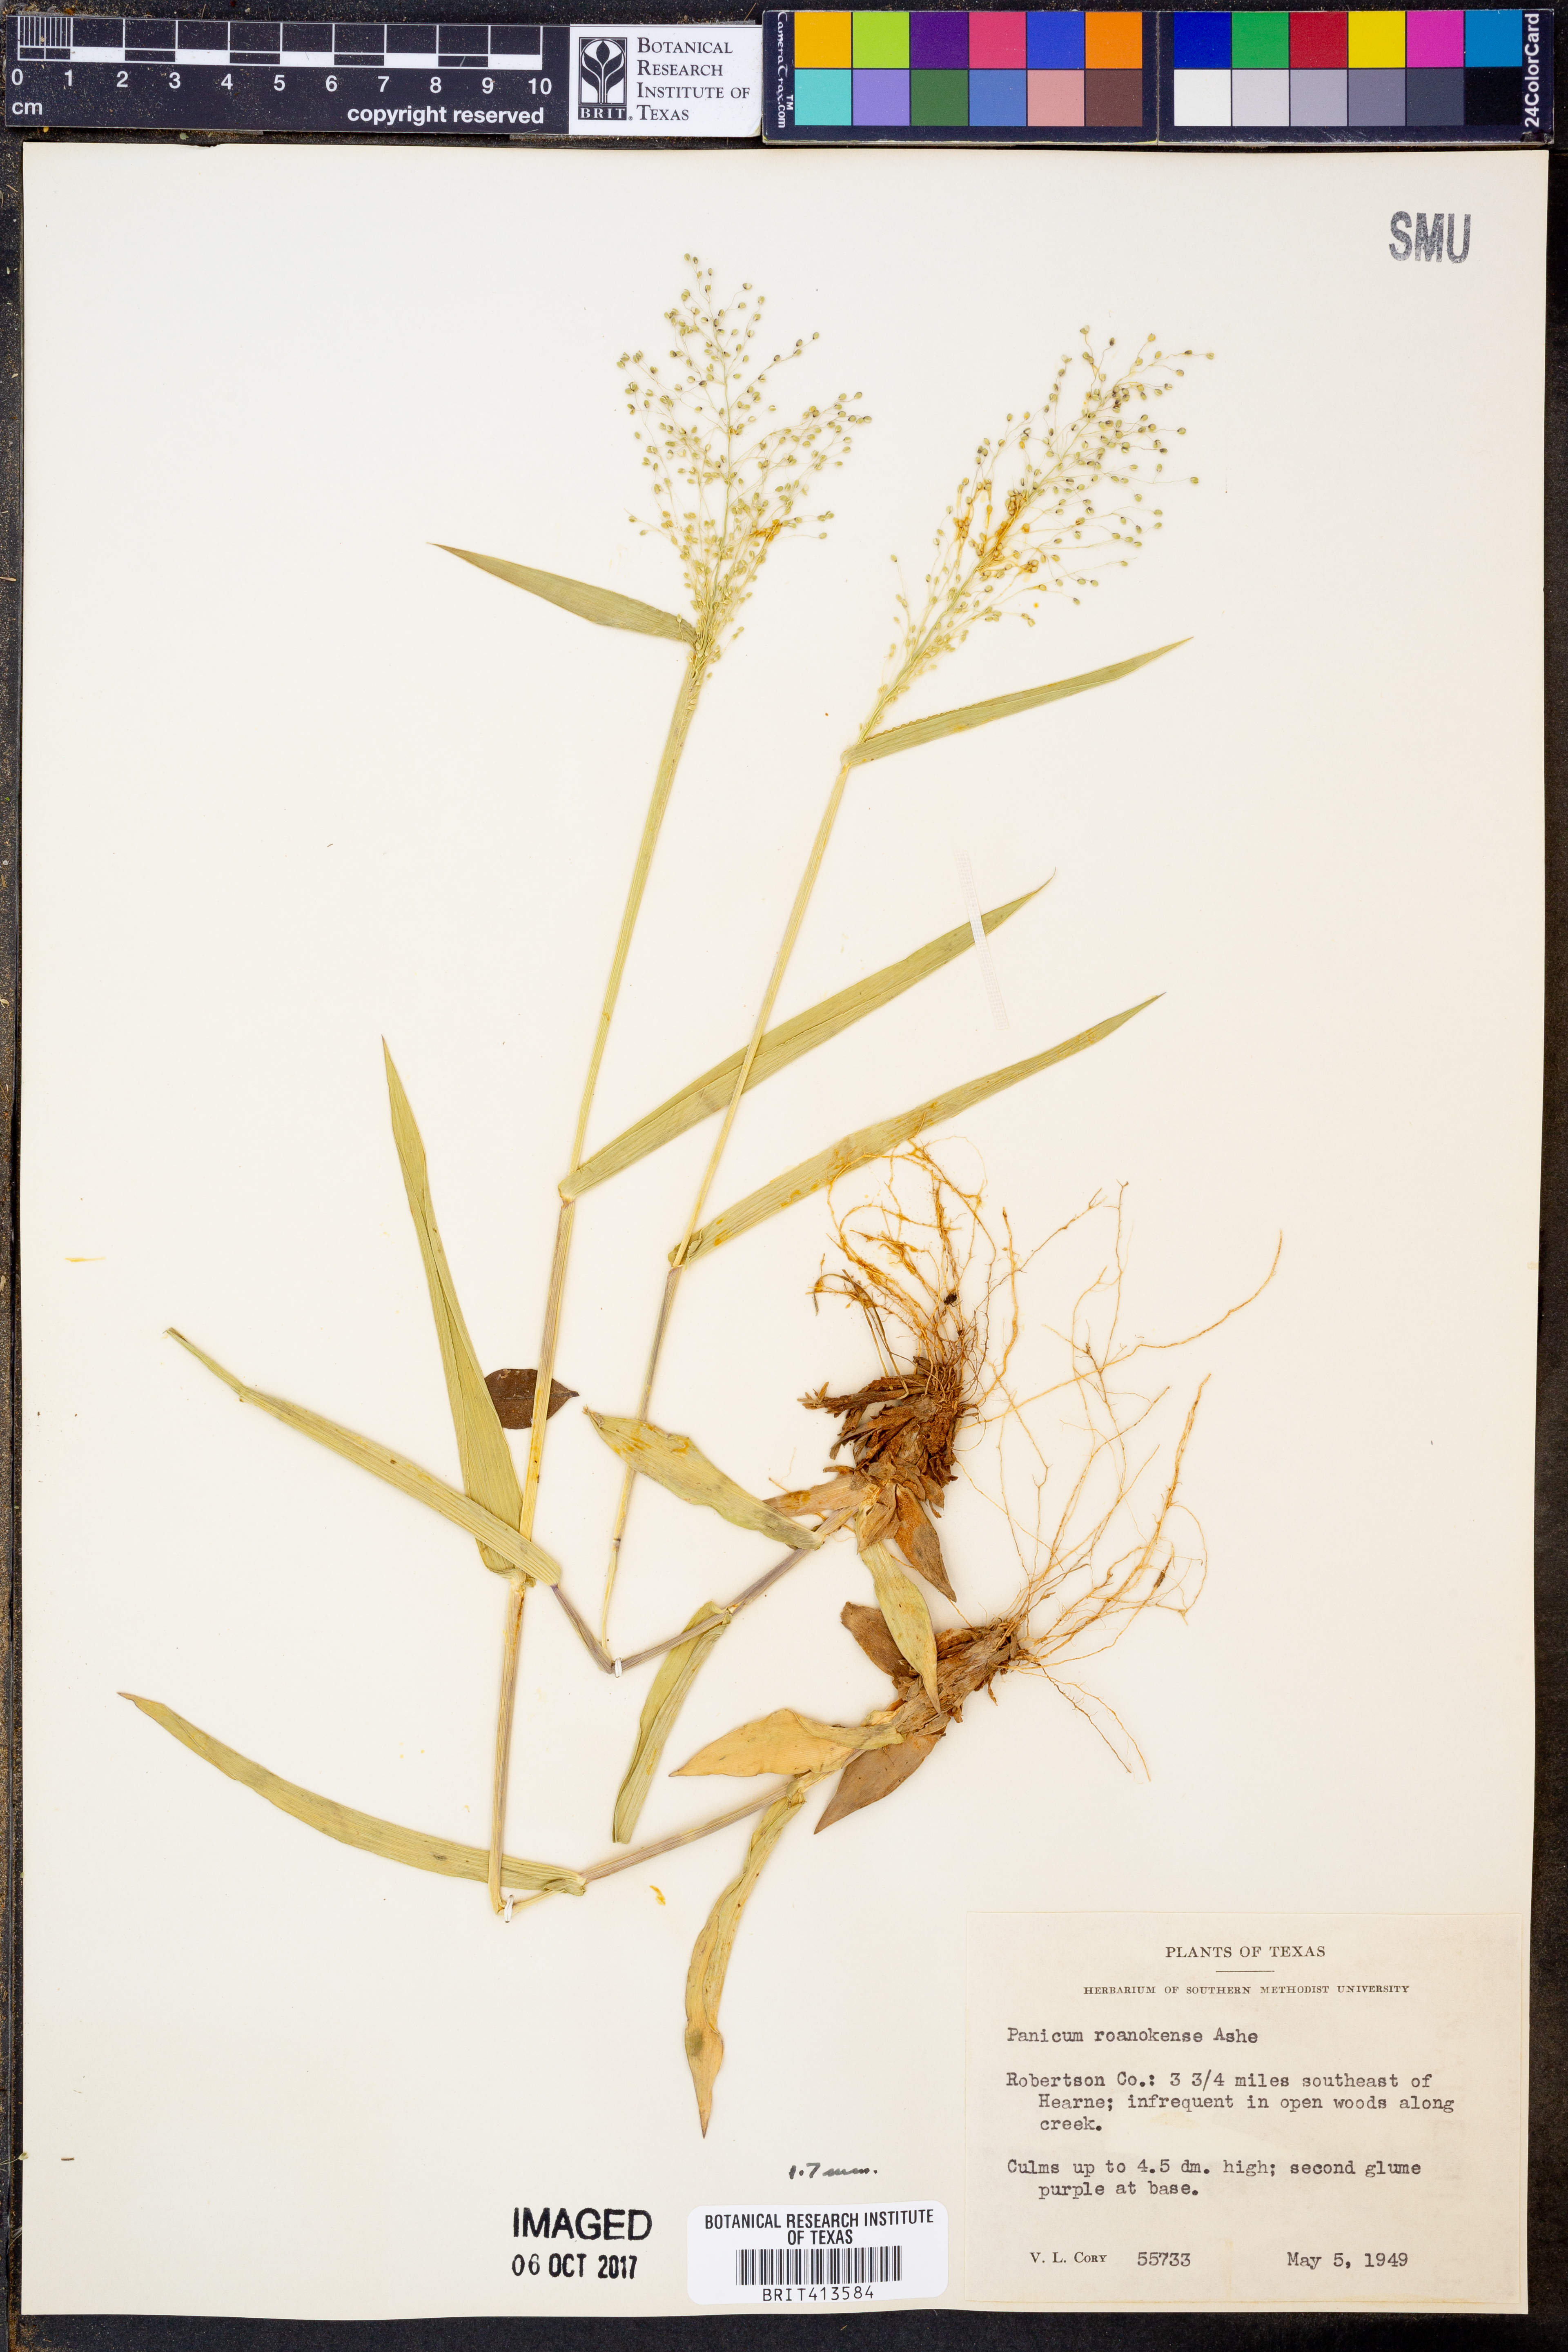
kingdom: Plantae
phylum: Tracheophyta
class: Liliopsida
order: Poales
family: Poaceae
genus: Dichanthelium
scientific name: Dichanthelium roanokense
